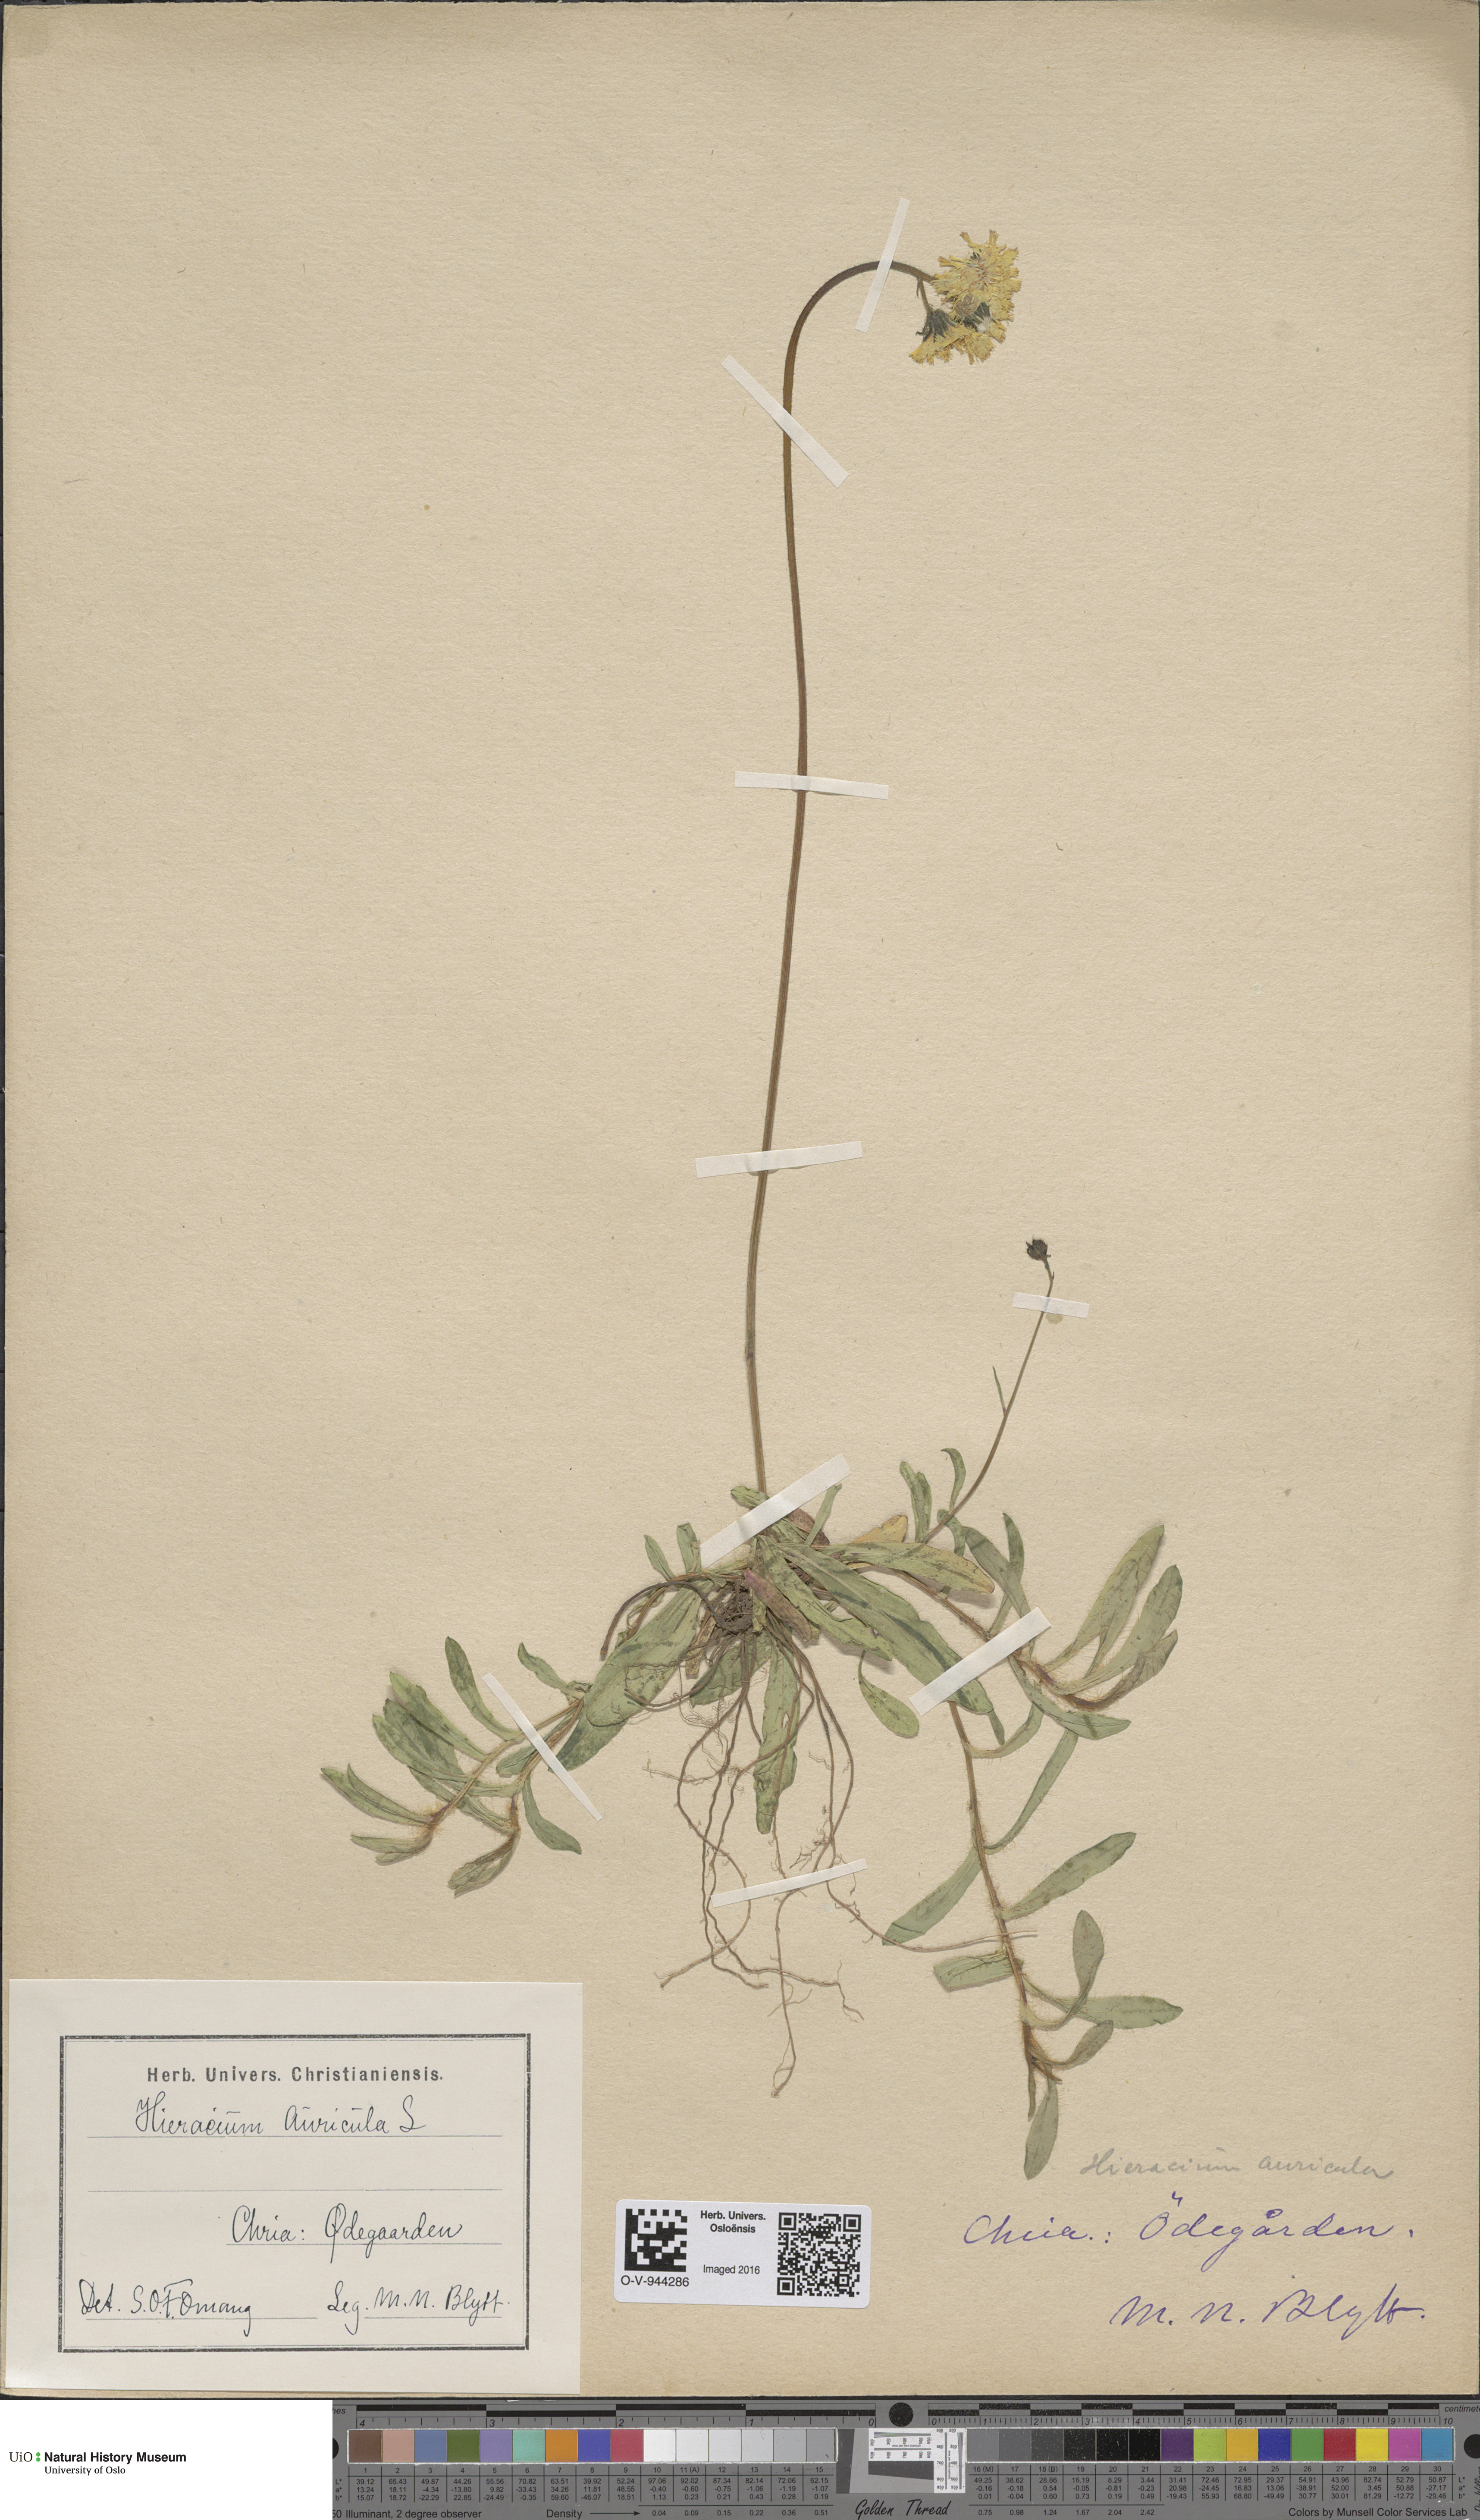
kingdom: Plantae
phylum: Tracheophyta
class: Magnoliopsida
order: Asterales
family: Asteraceae
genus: Pilosella
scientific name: Pilosella lactucella
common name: Glaucous fox-and-cubs
